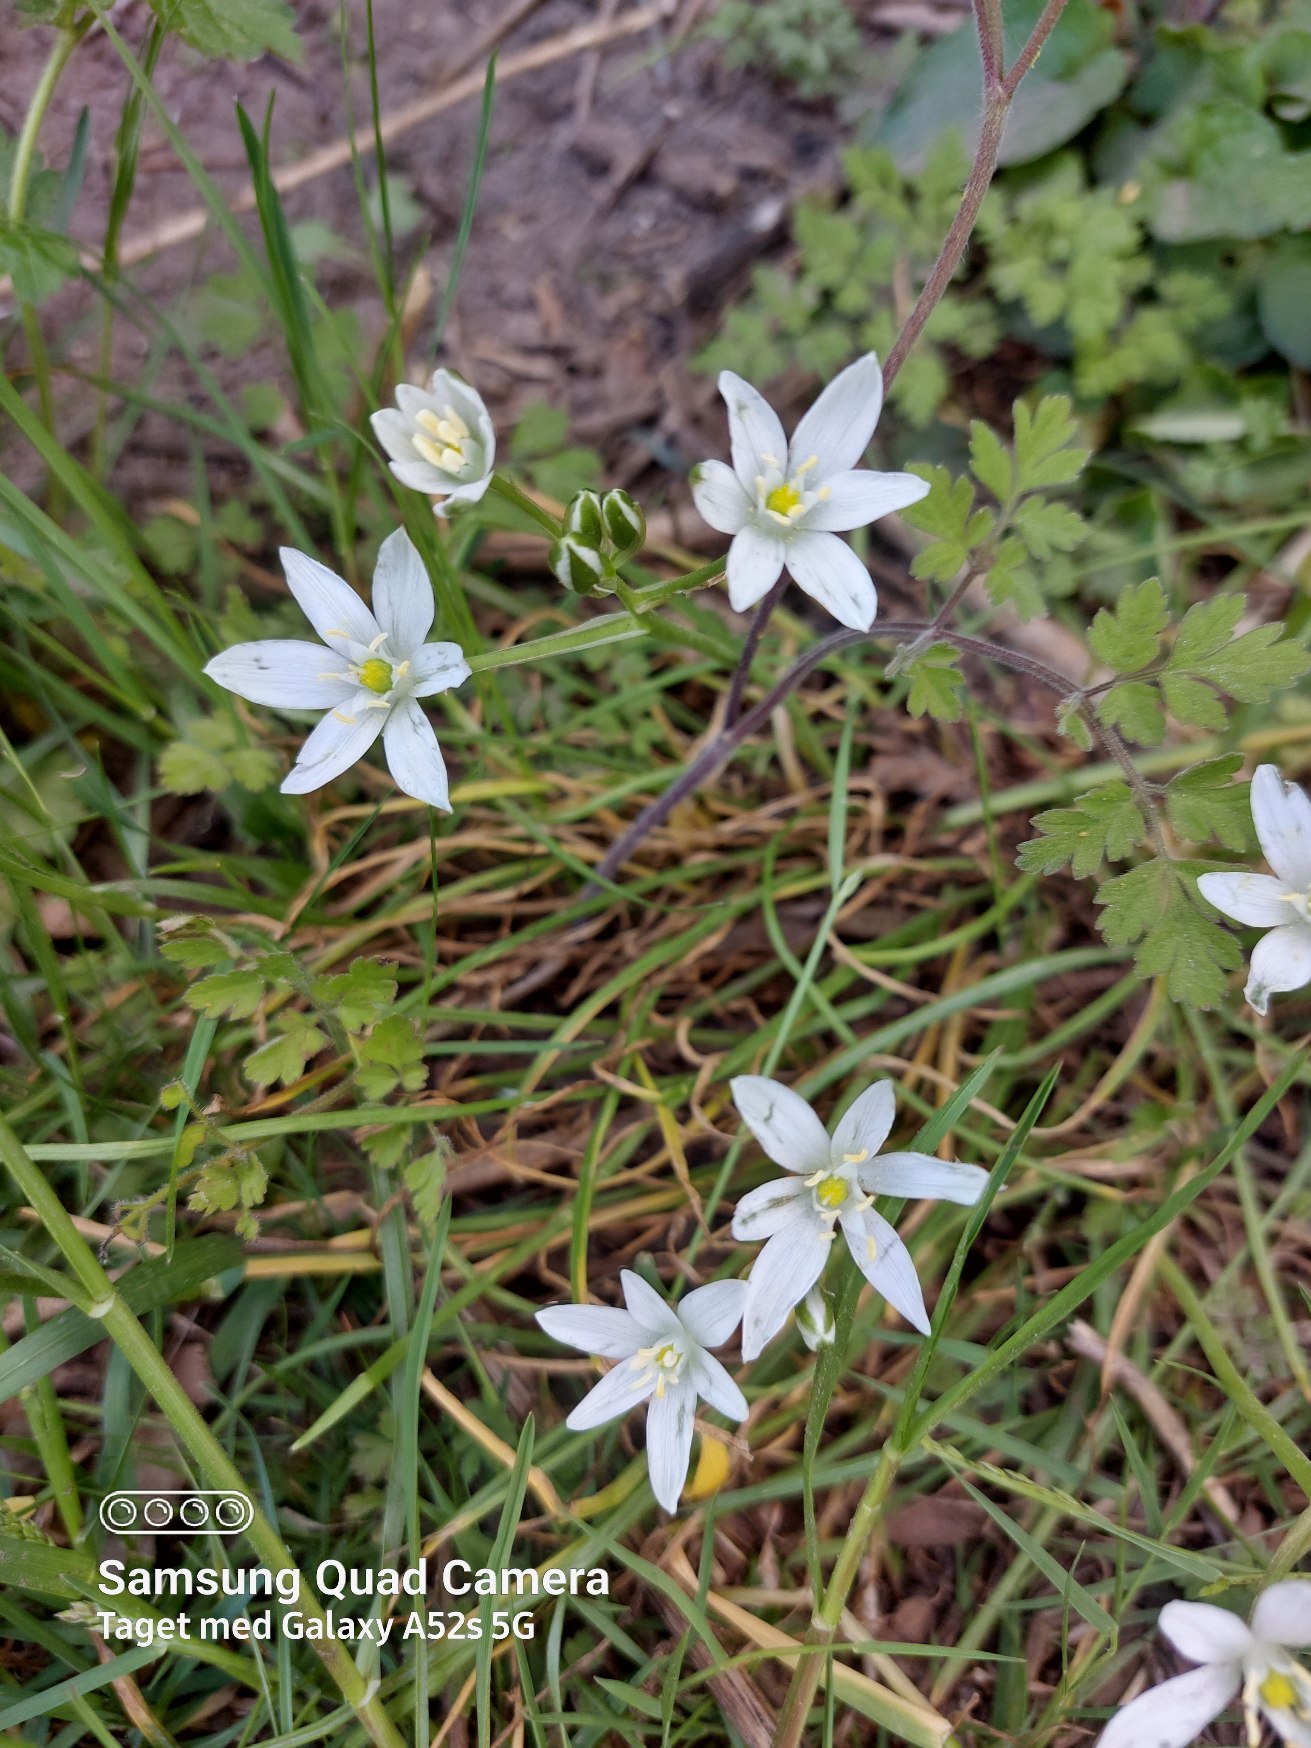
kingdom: Plantae
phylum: Tracheophyta
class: Liliopsida
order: Asparagales
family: Asparagaceae
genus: Ornithogalum
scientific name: Ornithogalum umbellatum
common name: Kost-fuglemælk
